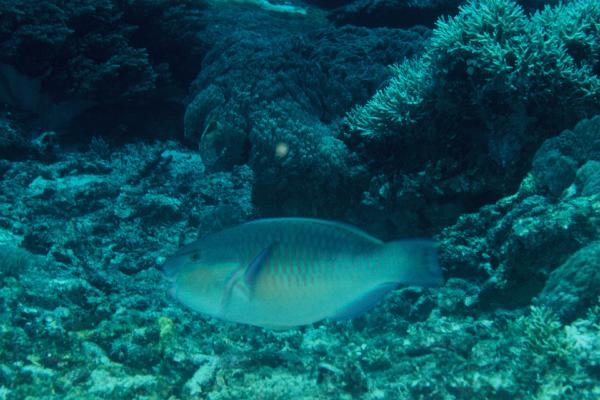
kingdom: Animalia
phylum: Chordata
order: Perciformes
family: Scaridae
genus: Chlorurus
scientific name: Chlorurus capistratoides
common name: Pink-margined parrotfish
